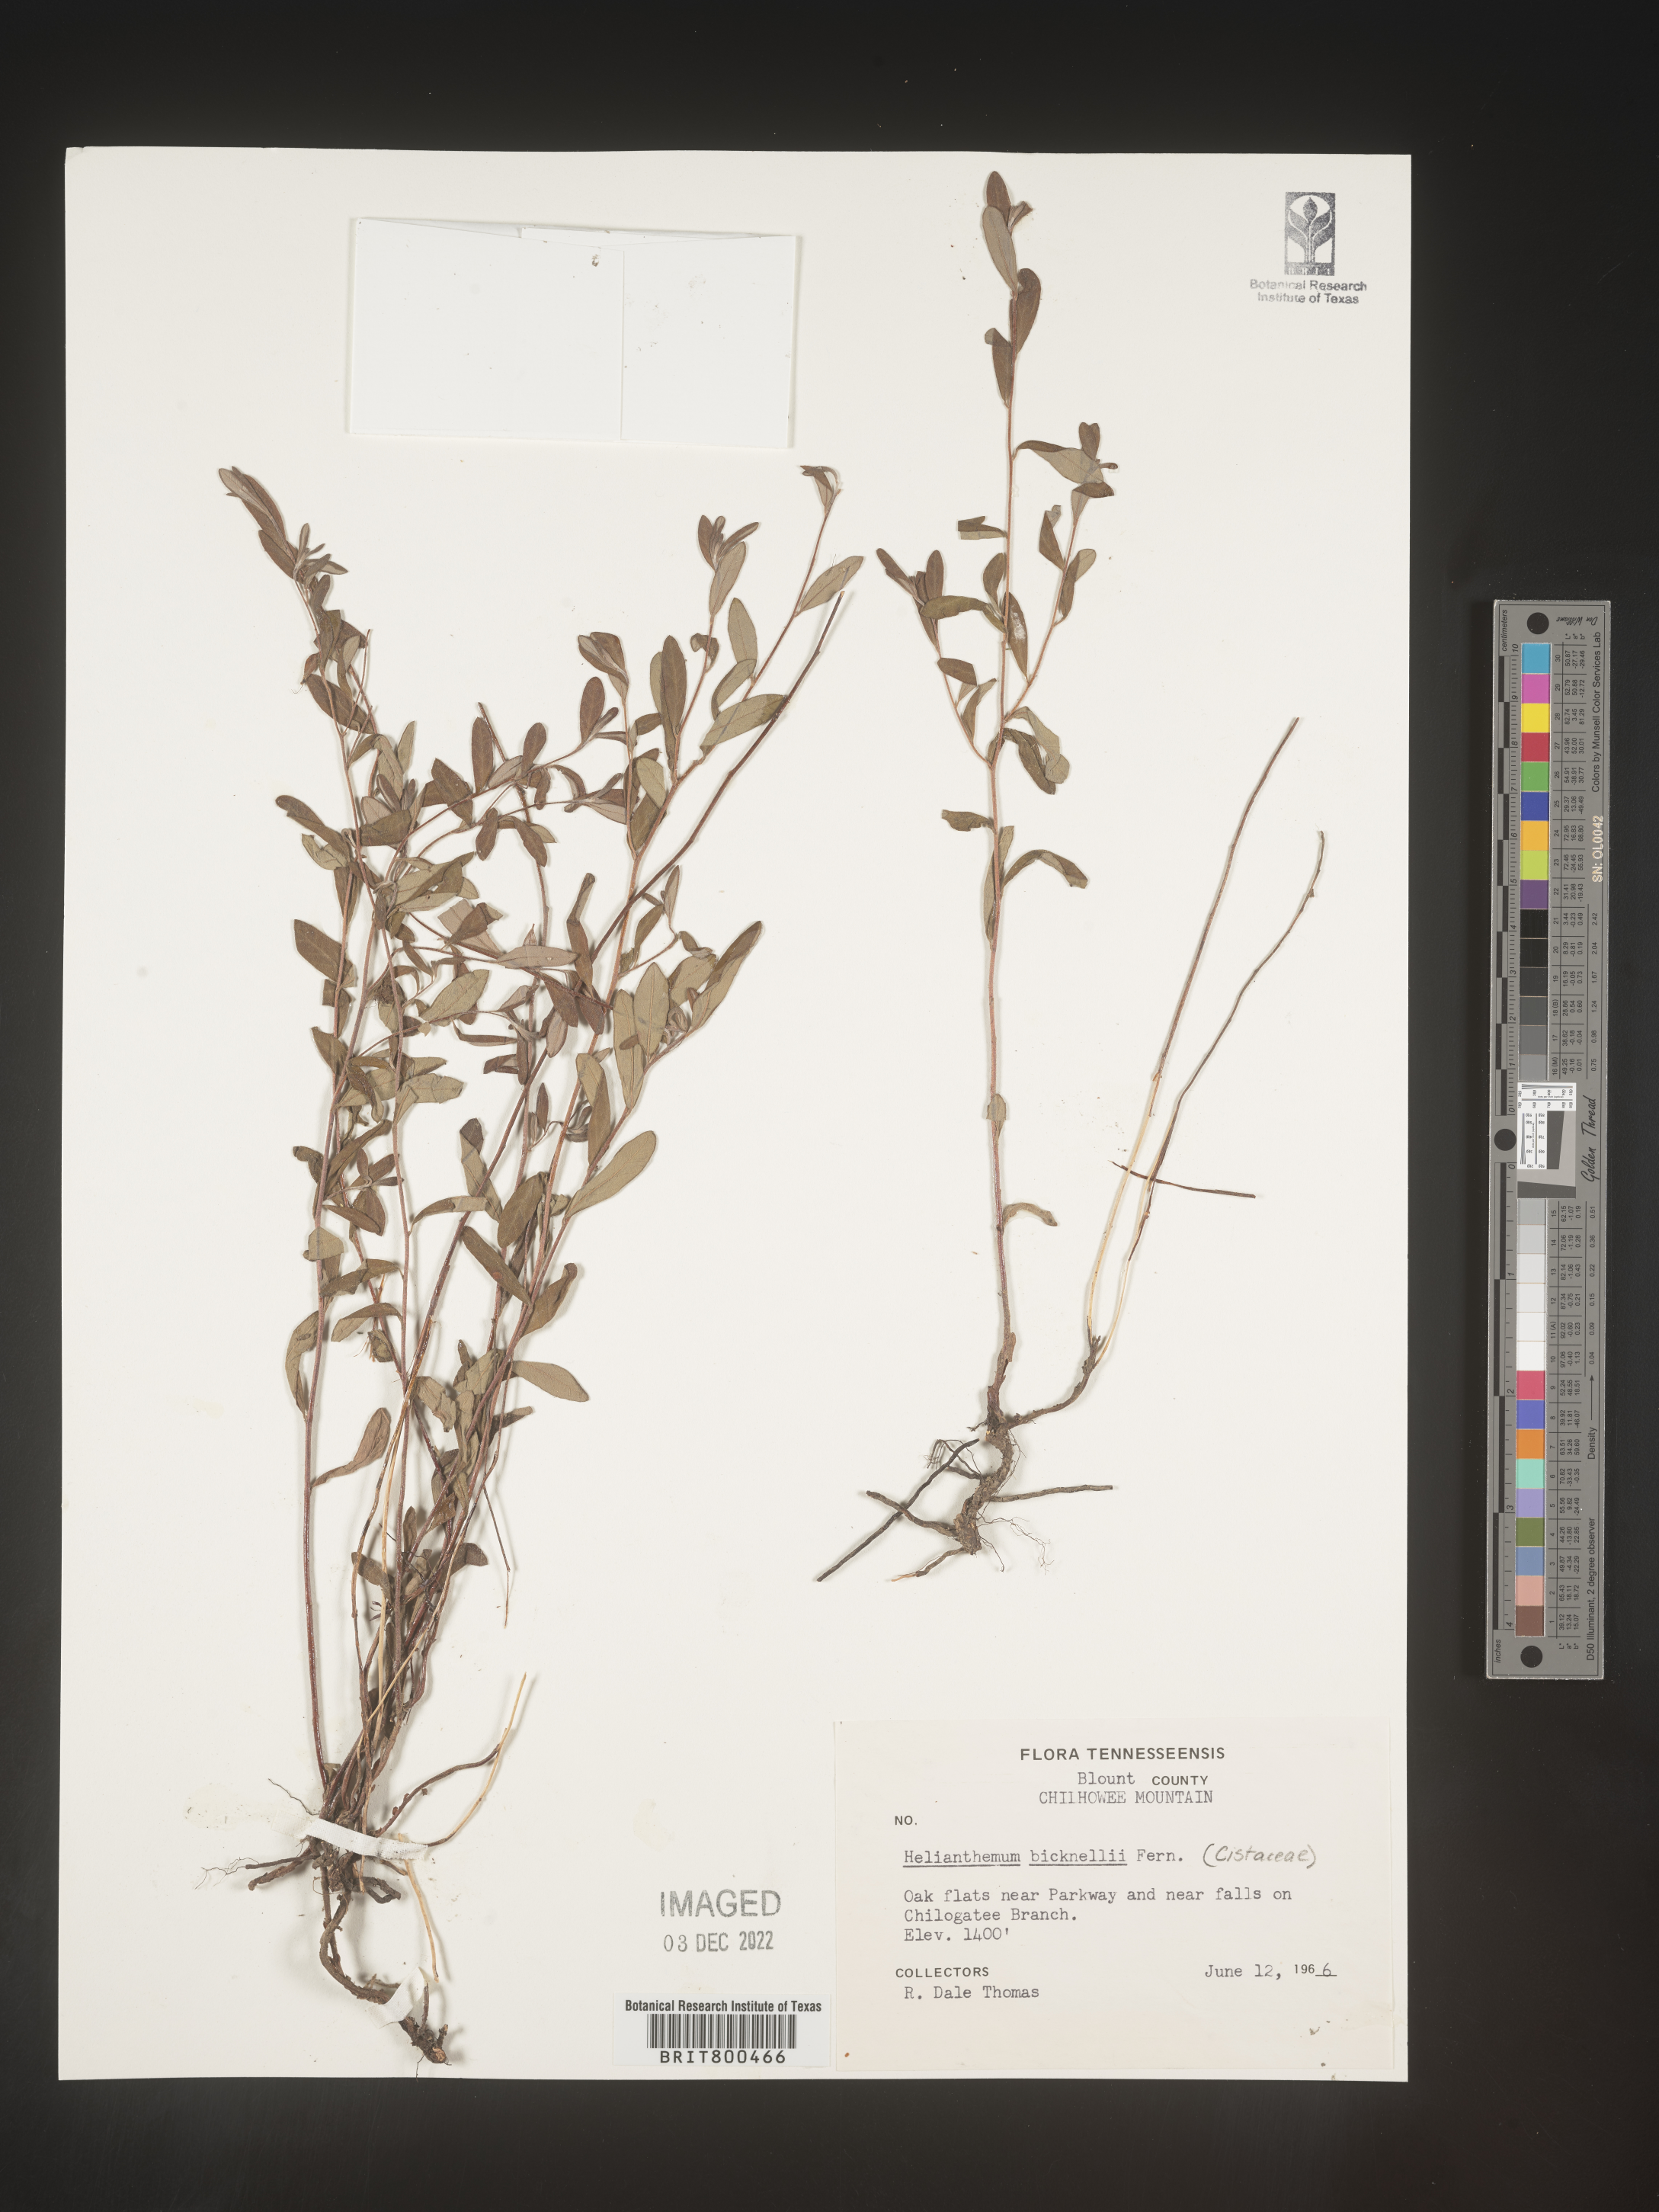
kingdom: Plantae
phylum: Tracheophyta
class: Magnoliopsida
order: Malvales
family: Cistaceae
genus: Helianthemum
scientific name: Helianthemum
